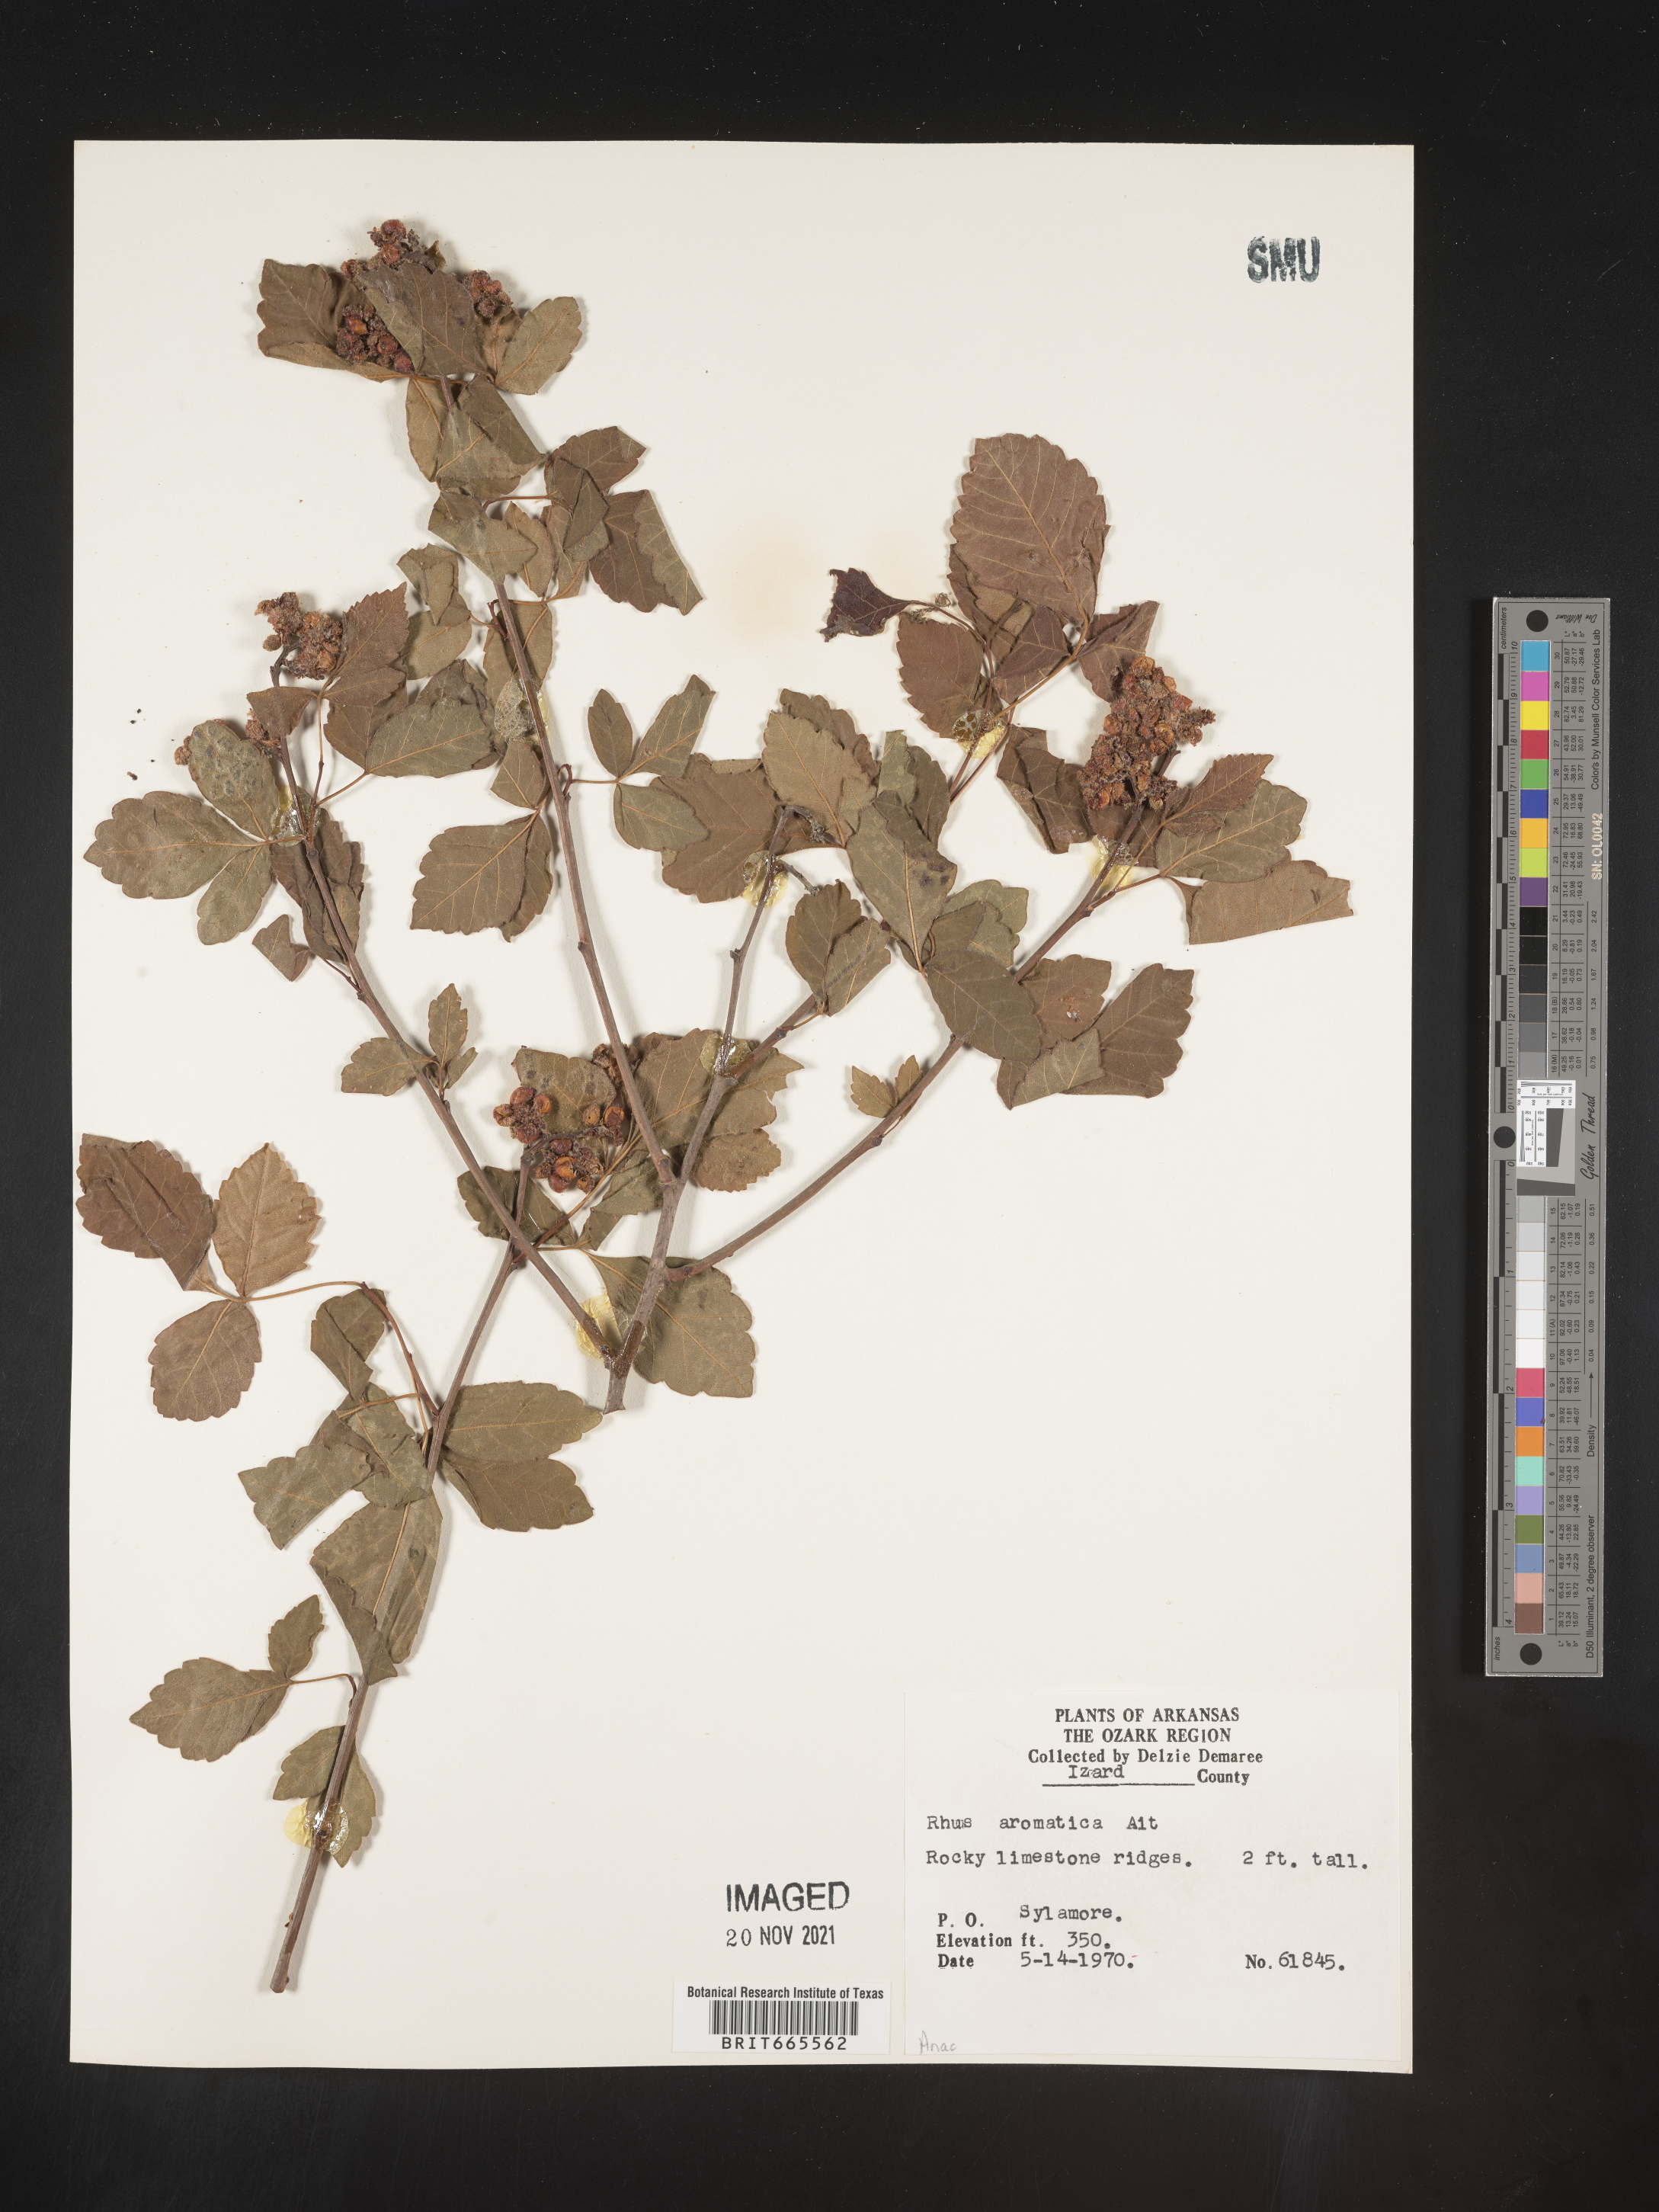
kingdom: Plantae
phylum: Tracheophyta
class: Magnoliopsida
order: Sapindales
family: Anacardiaceae
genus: Rhus
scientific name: Rhus aromatica
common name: Aromatic sumac
